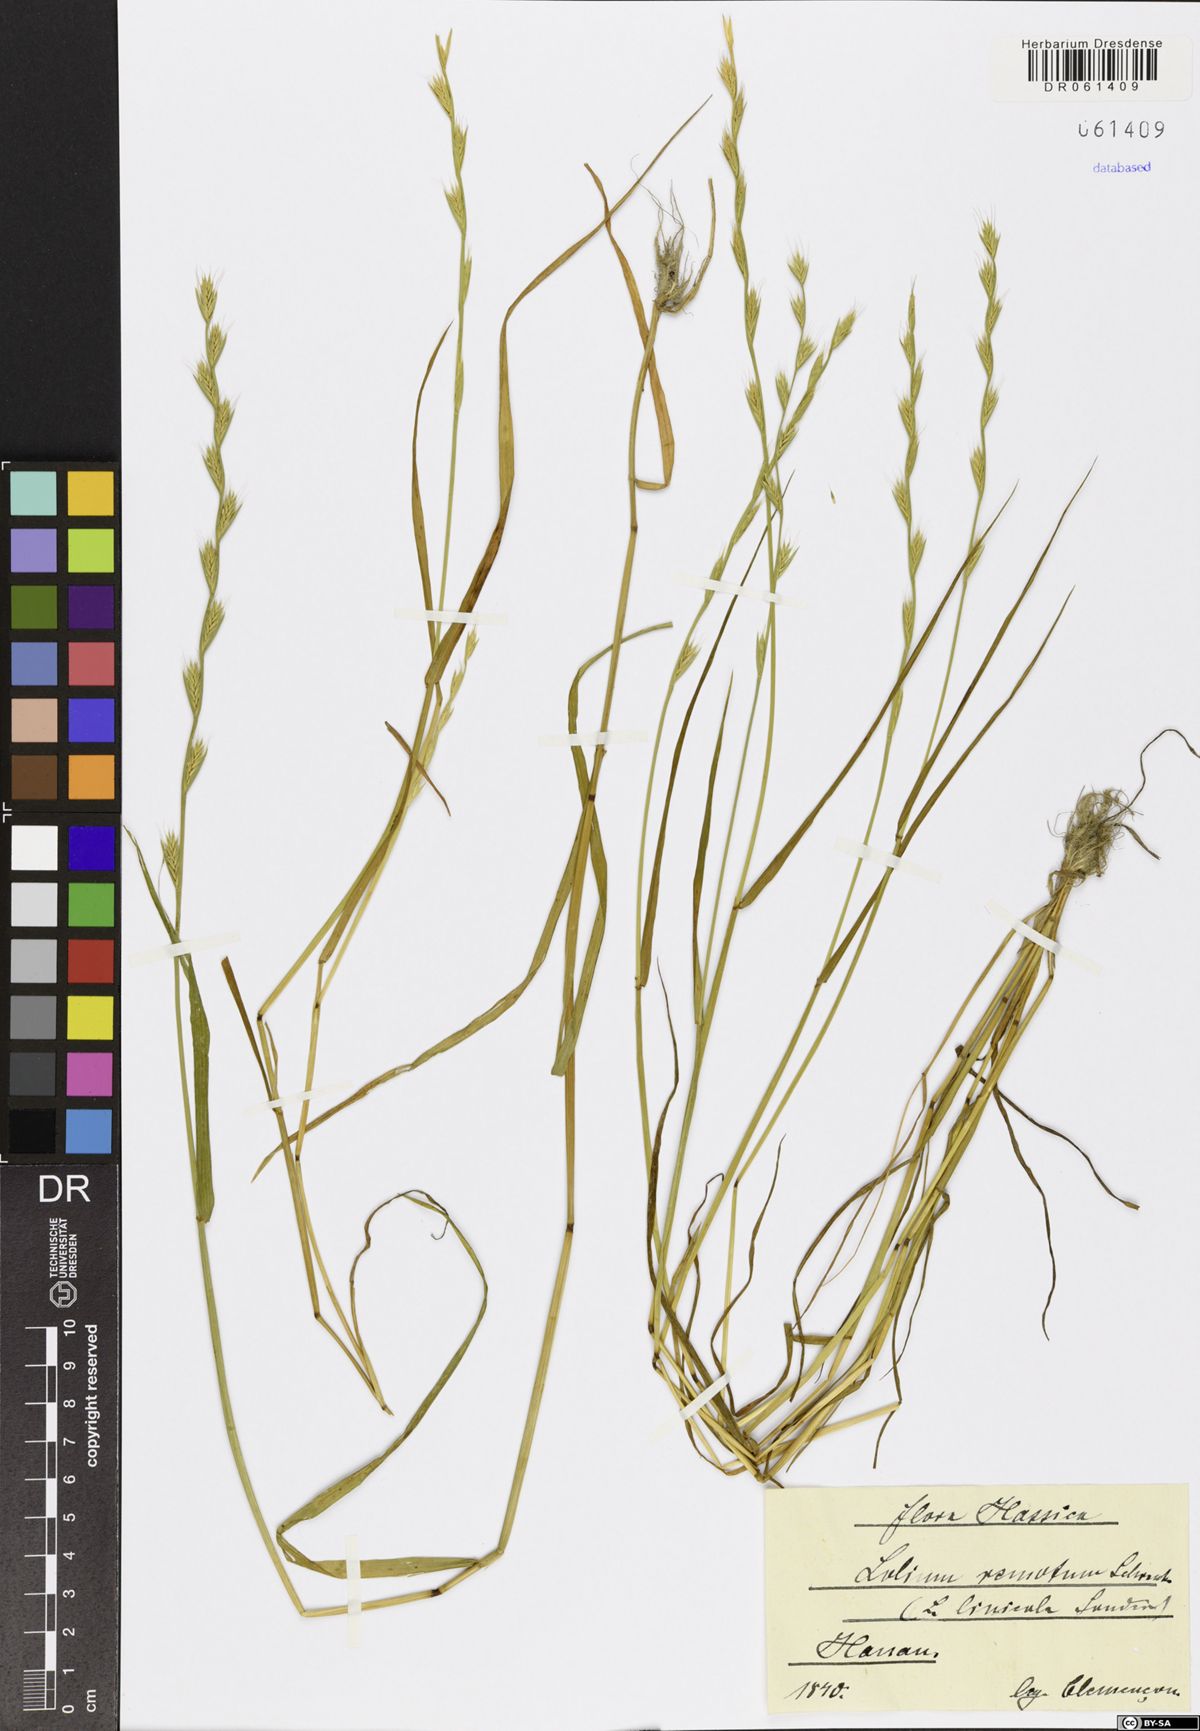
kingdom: Plantae
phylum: Tracheophyta
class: Liliopsida
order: Poales
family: Poaceae
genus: Lolium
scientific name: Lolium remotum
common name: Flaxfield rye-grass
